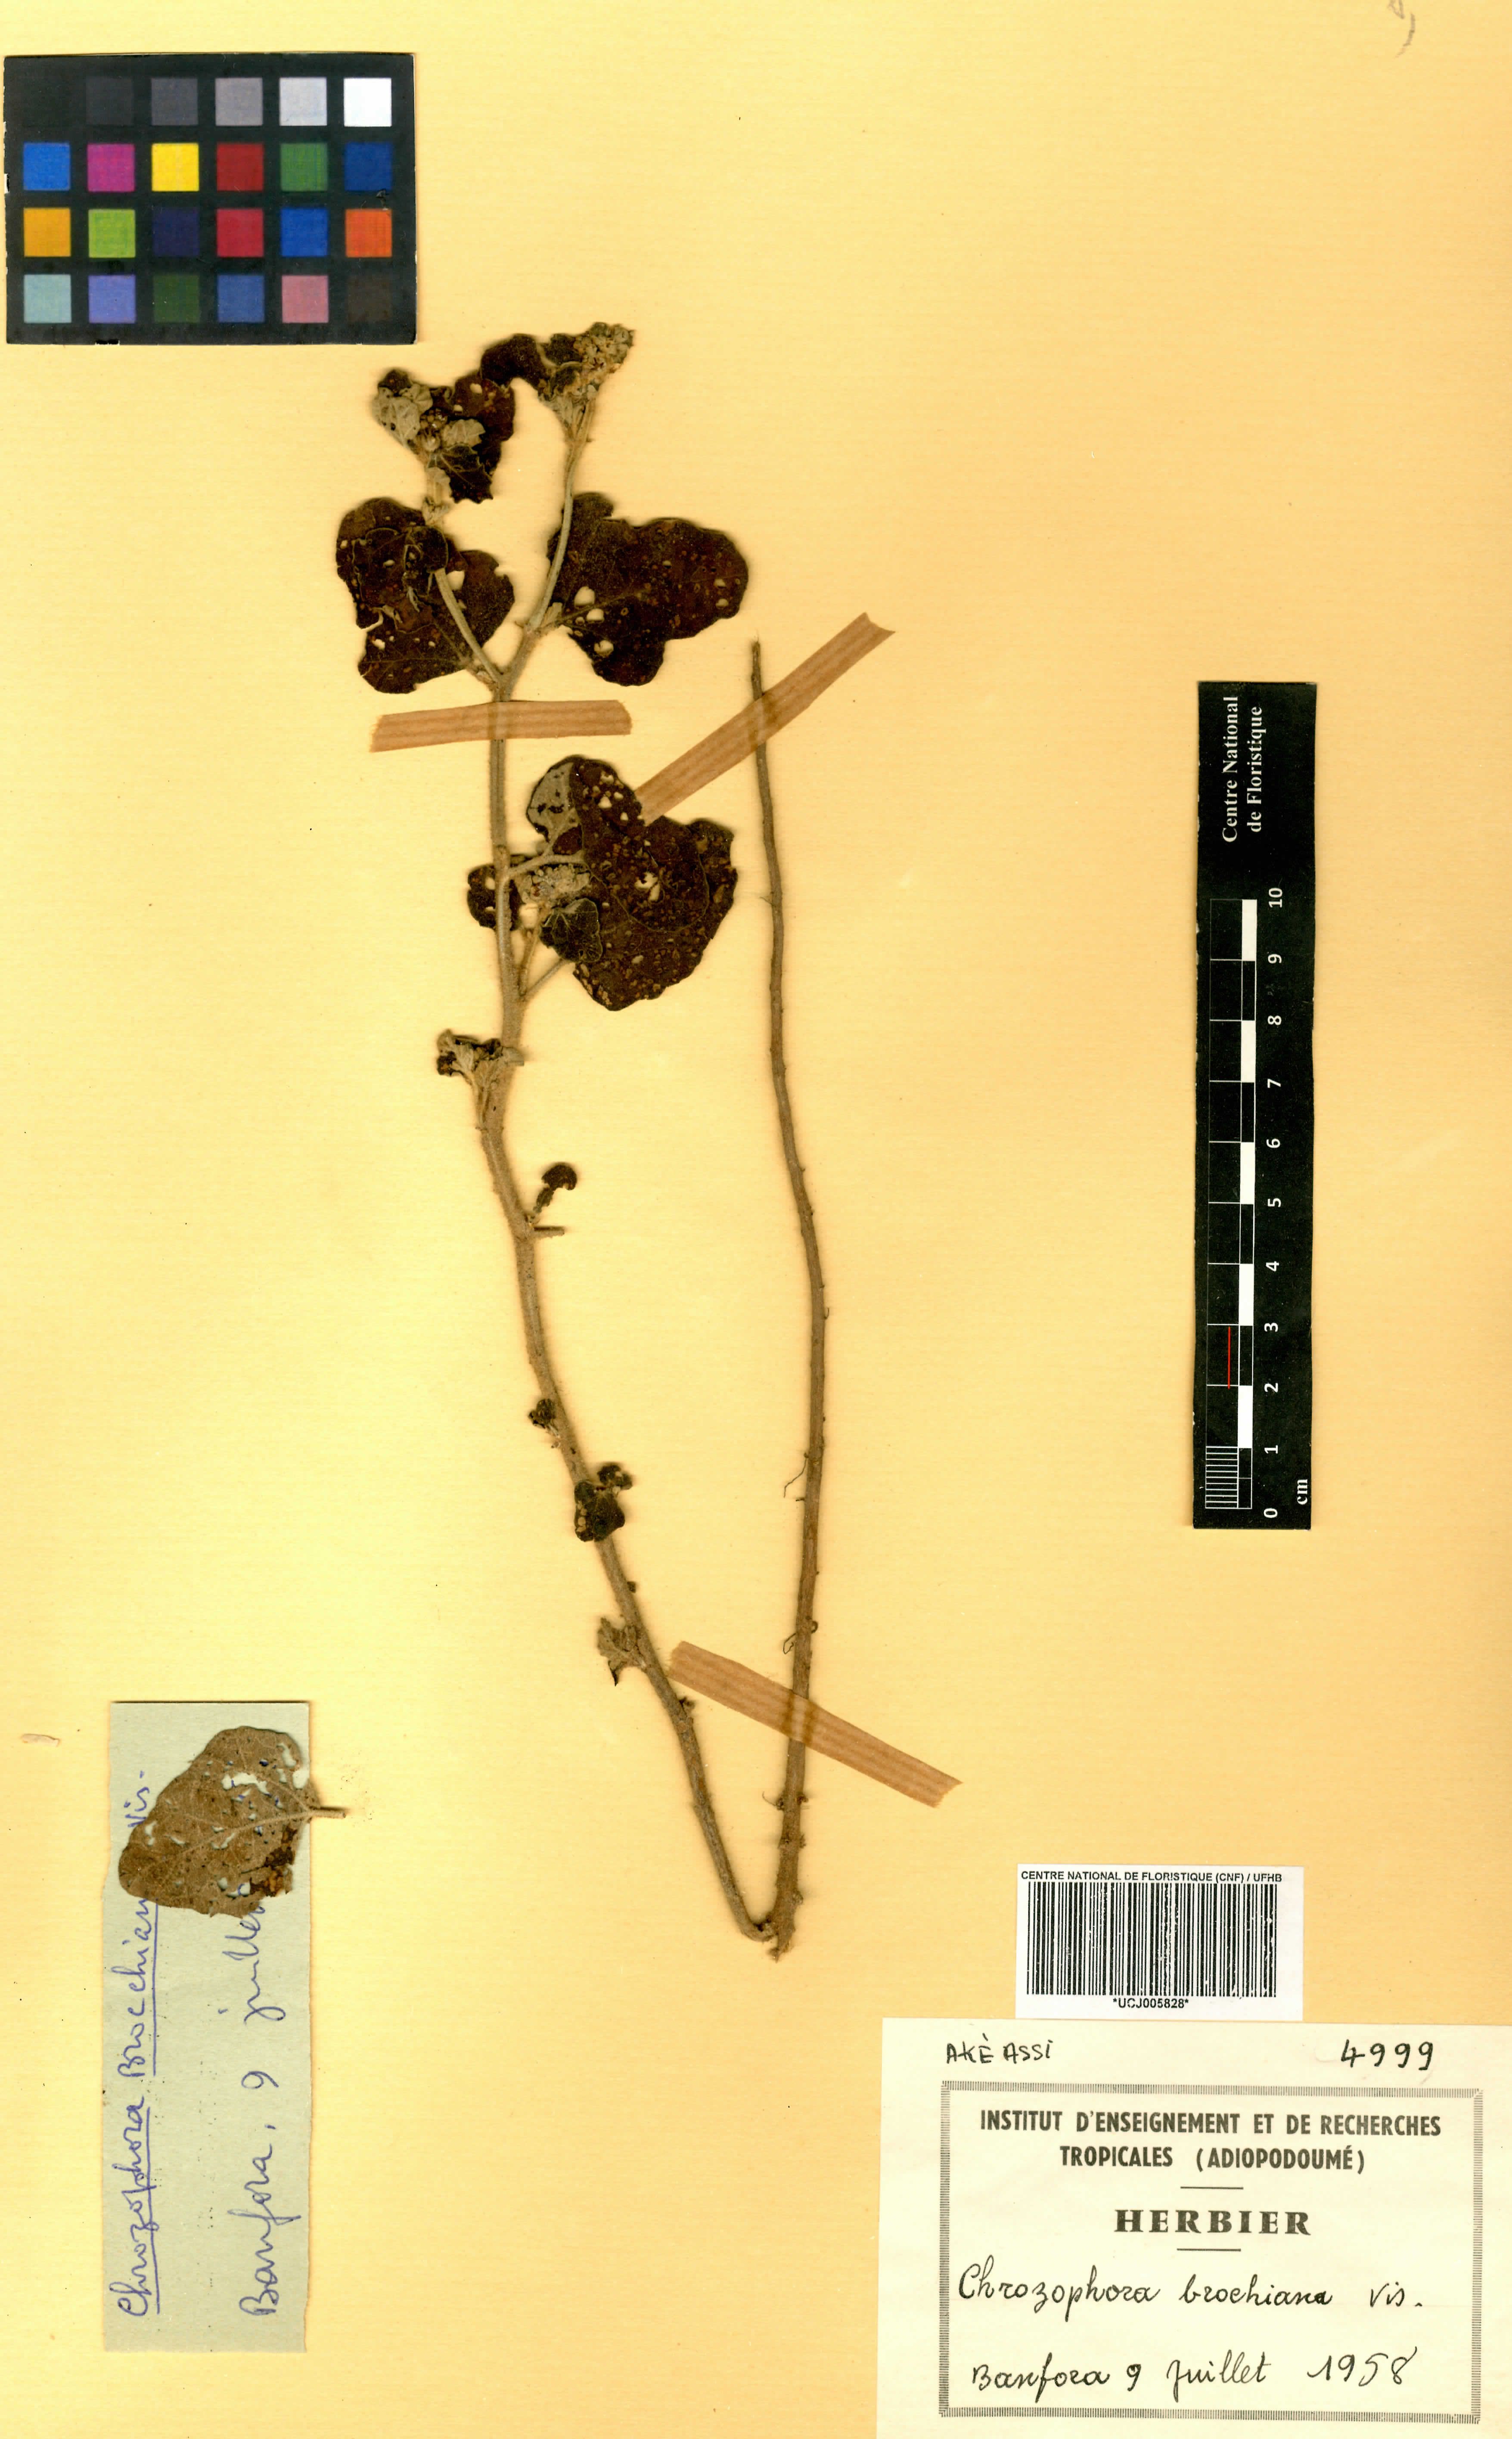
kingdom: Plantae
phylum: Tracheophyta
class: Magnoliopsida
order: Malpighiales
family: Euphorbiaceae
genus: Chrozophora
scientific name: Chrozophora brocchiana
